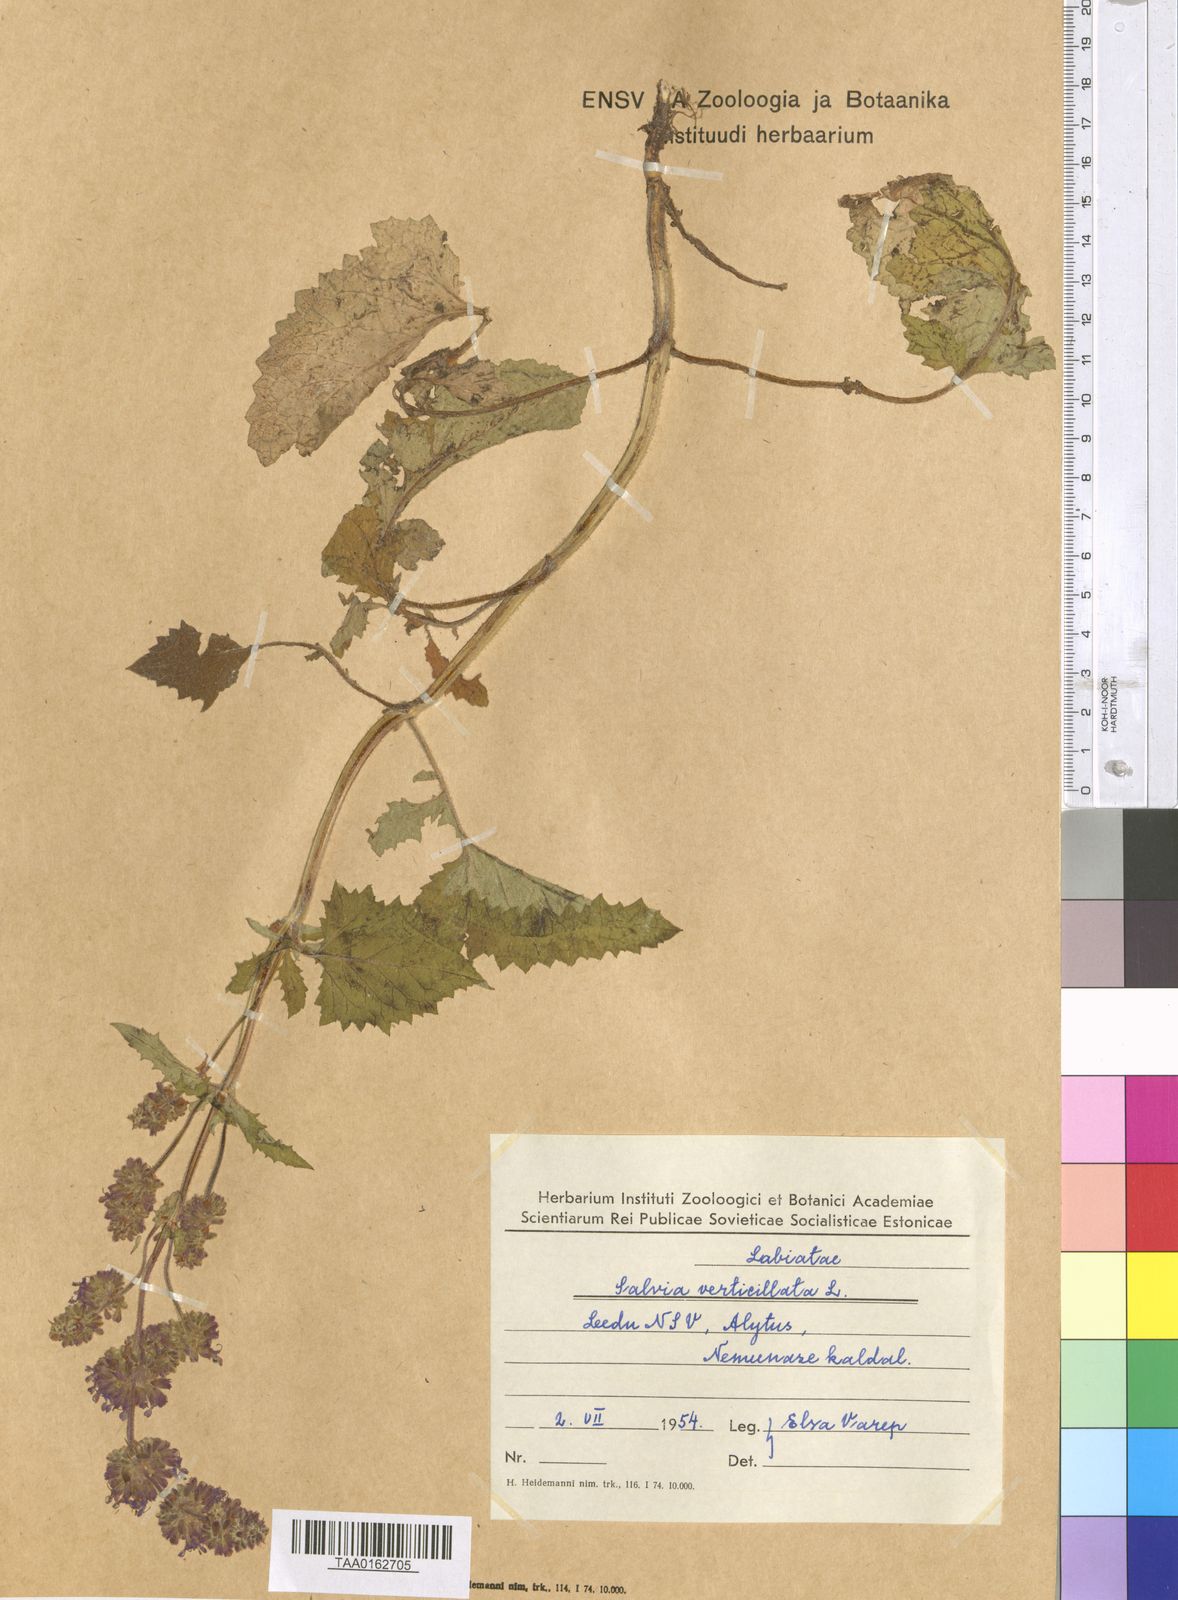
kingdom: Plantae
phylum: Tracheophyta
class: Magnoliopsida
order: Lamiales
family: Lamiaceae
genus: Salvia
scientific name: Salvia verticillata
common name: Whorled clary
